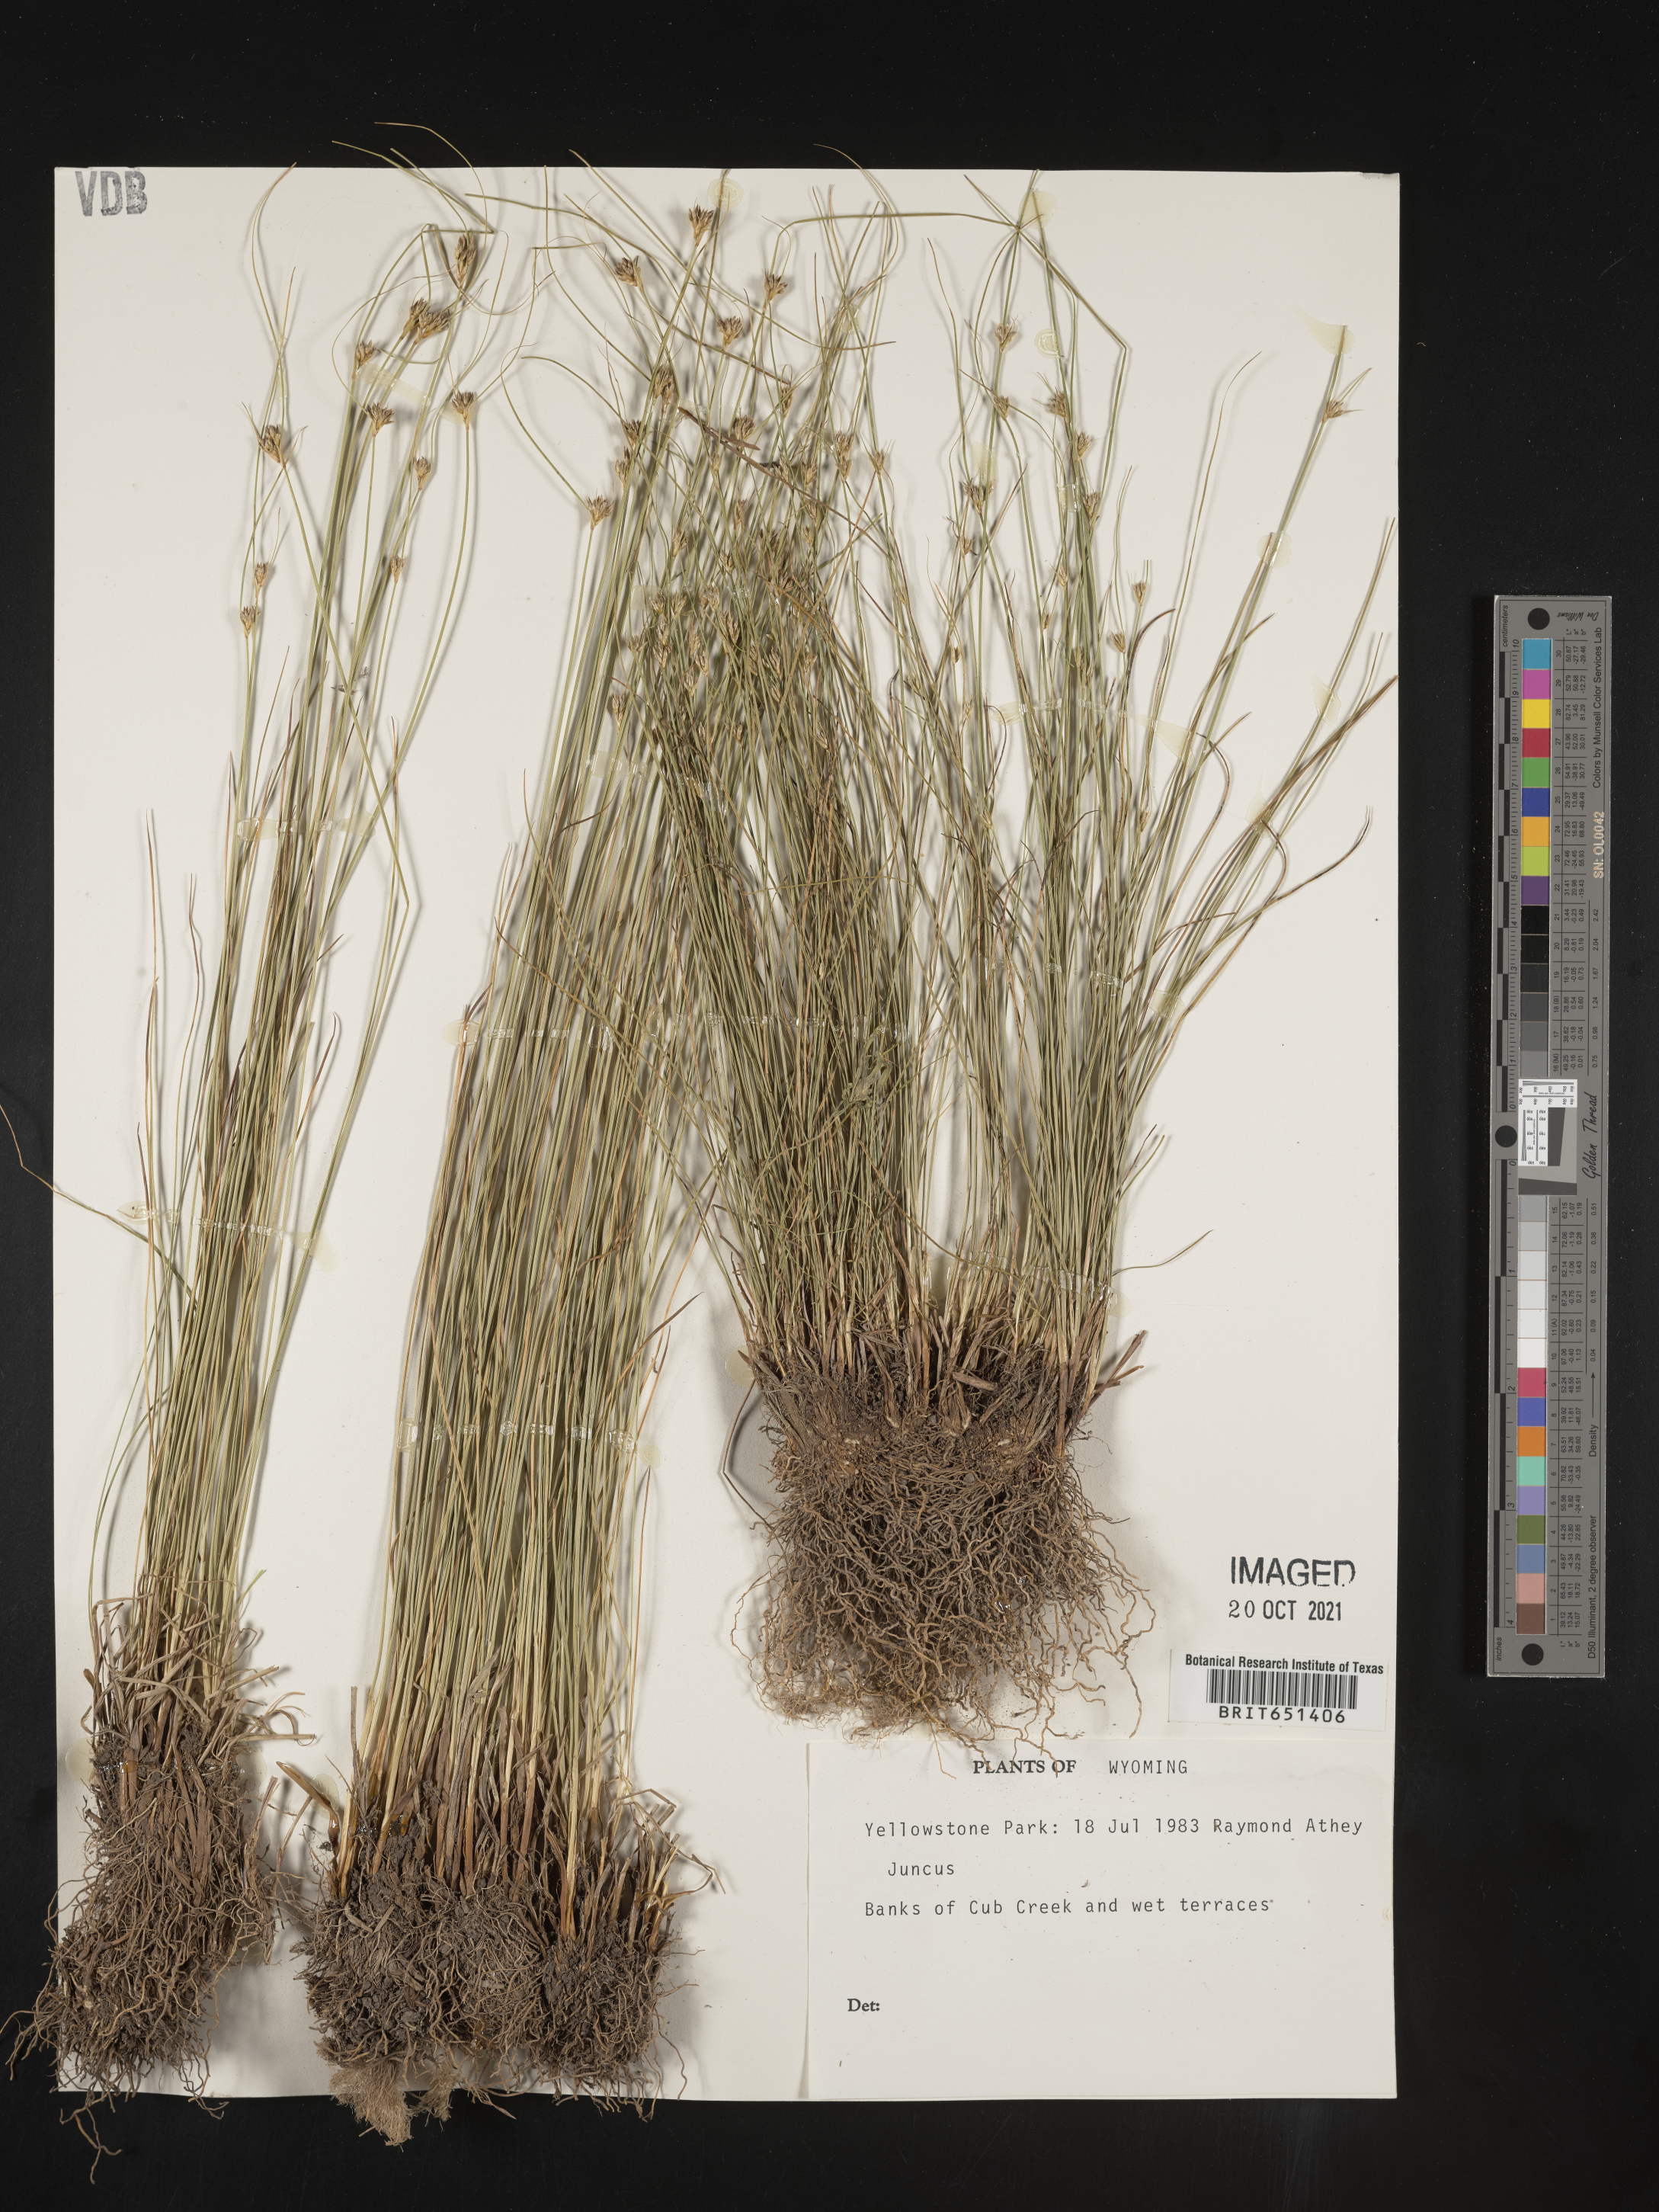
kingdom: Plantae
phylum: Tracheophyta
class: Liliopsida
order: Poales
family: Juncaceae
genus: Juncus
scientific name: Juncus
